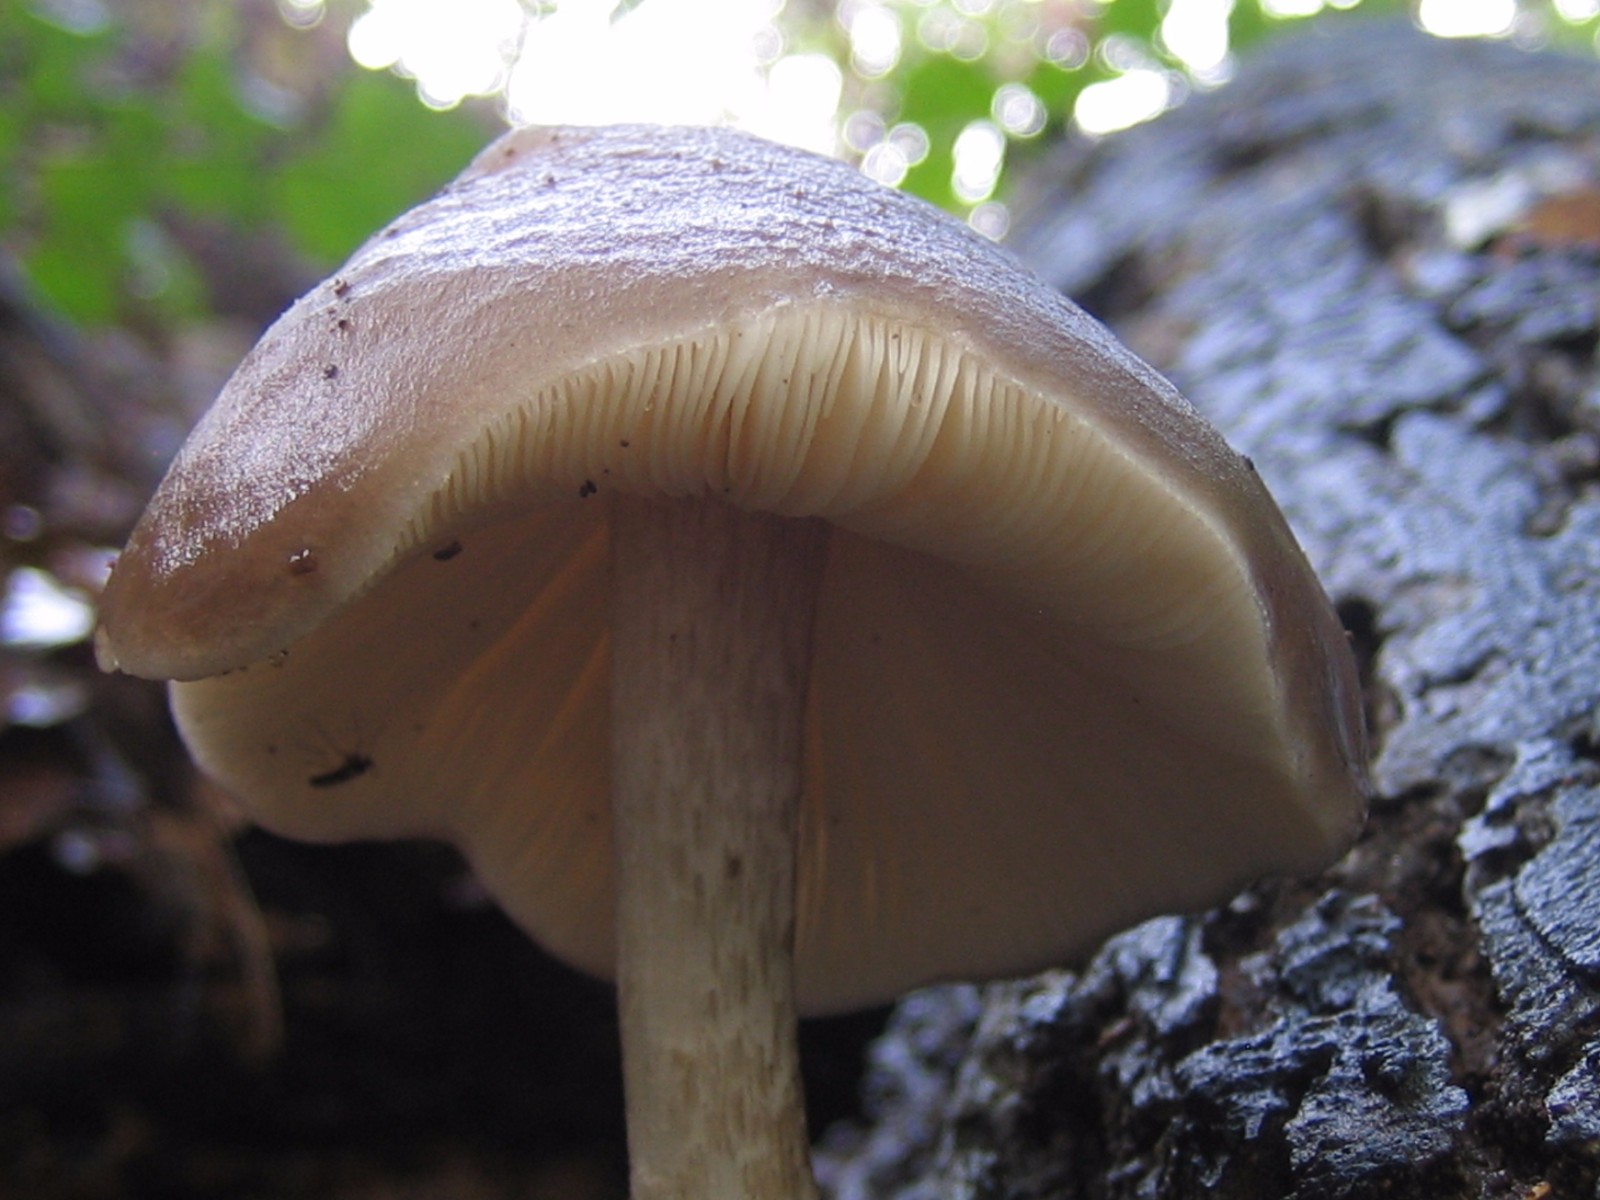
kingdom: Fungi
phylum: Basidiomycota
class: Agaricomycetes
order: Agaricales
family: Pluteaceae
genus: Pluteus
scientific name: Pluteus cervinus
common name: sodfarvet skærmhat
